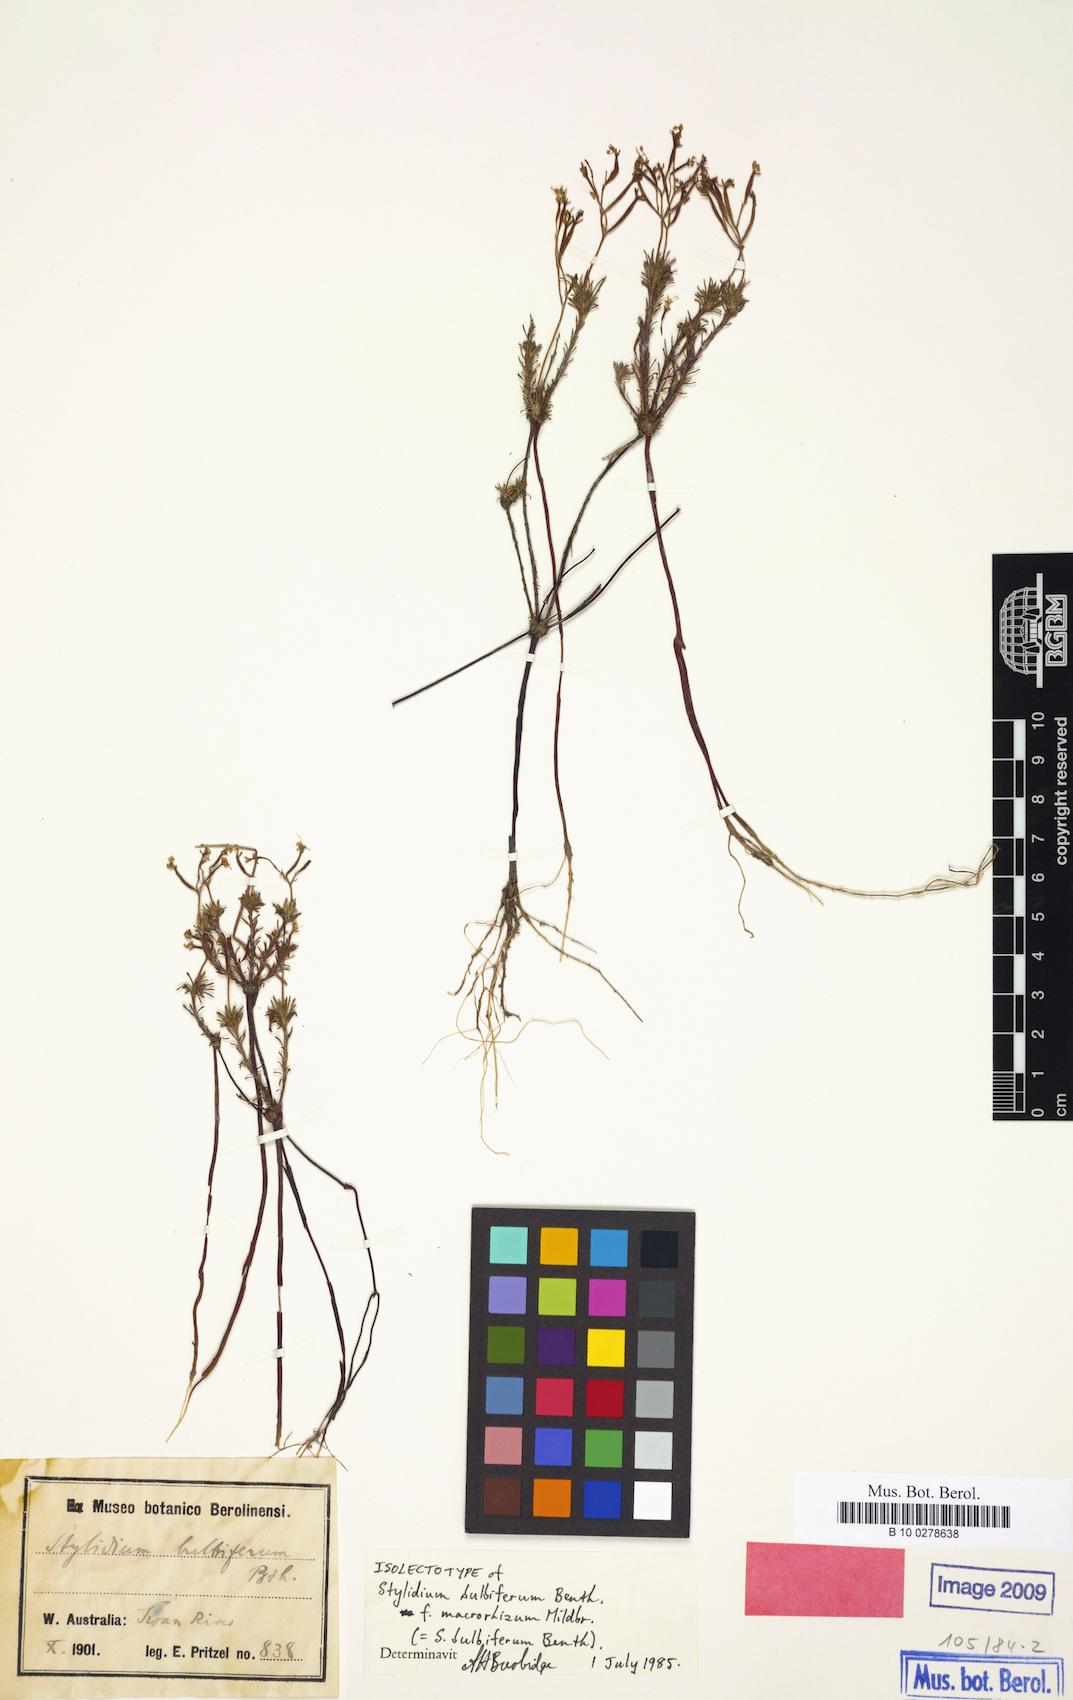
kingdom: Plantae
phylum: Tracheophyta
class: Magnoliopsida
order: Asterales
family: Stylidiaceae
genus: Stylidium
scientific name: Stylidium recurvum
